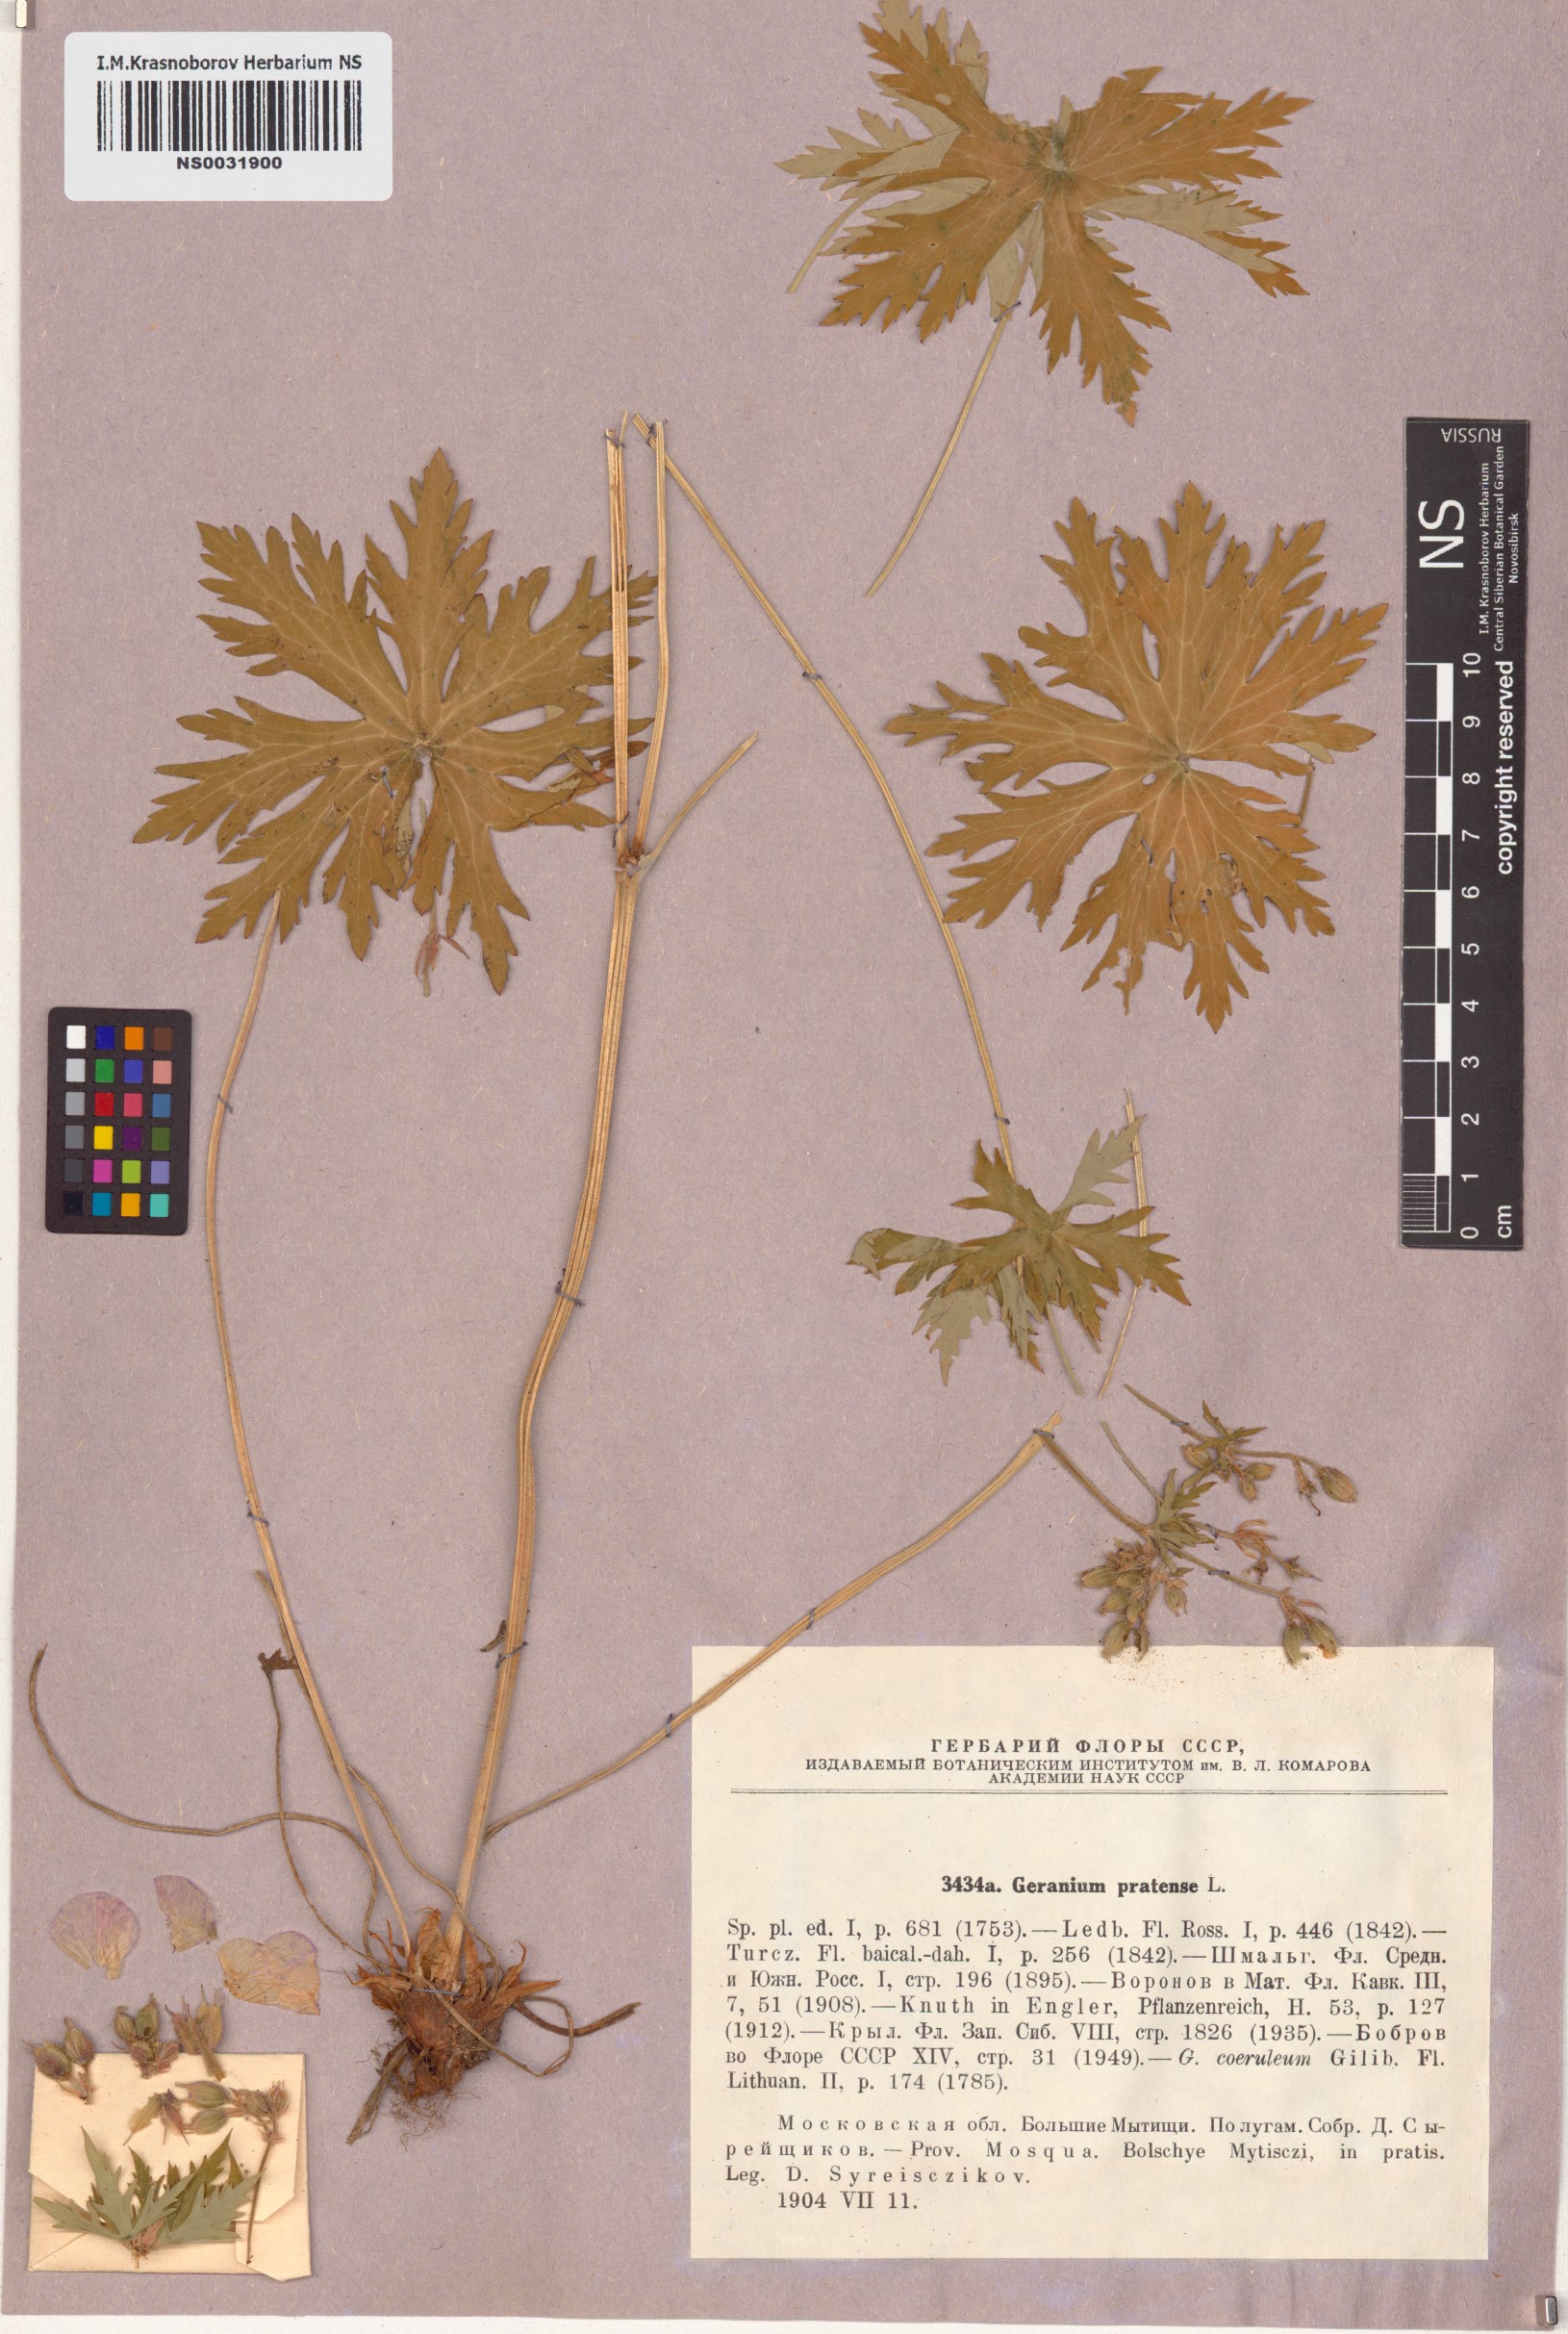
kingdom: Plantae
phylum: Tracheophyta
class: Magnoliopsida
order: Geraniales
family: Geraniaceae
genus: Geranium
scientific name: Geranium pratense
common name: Meadow crane's-bill
